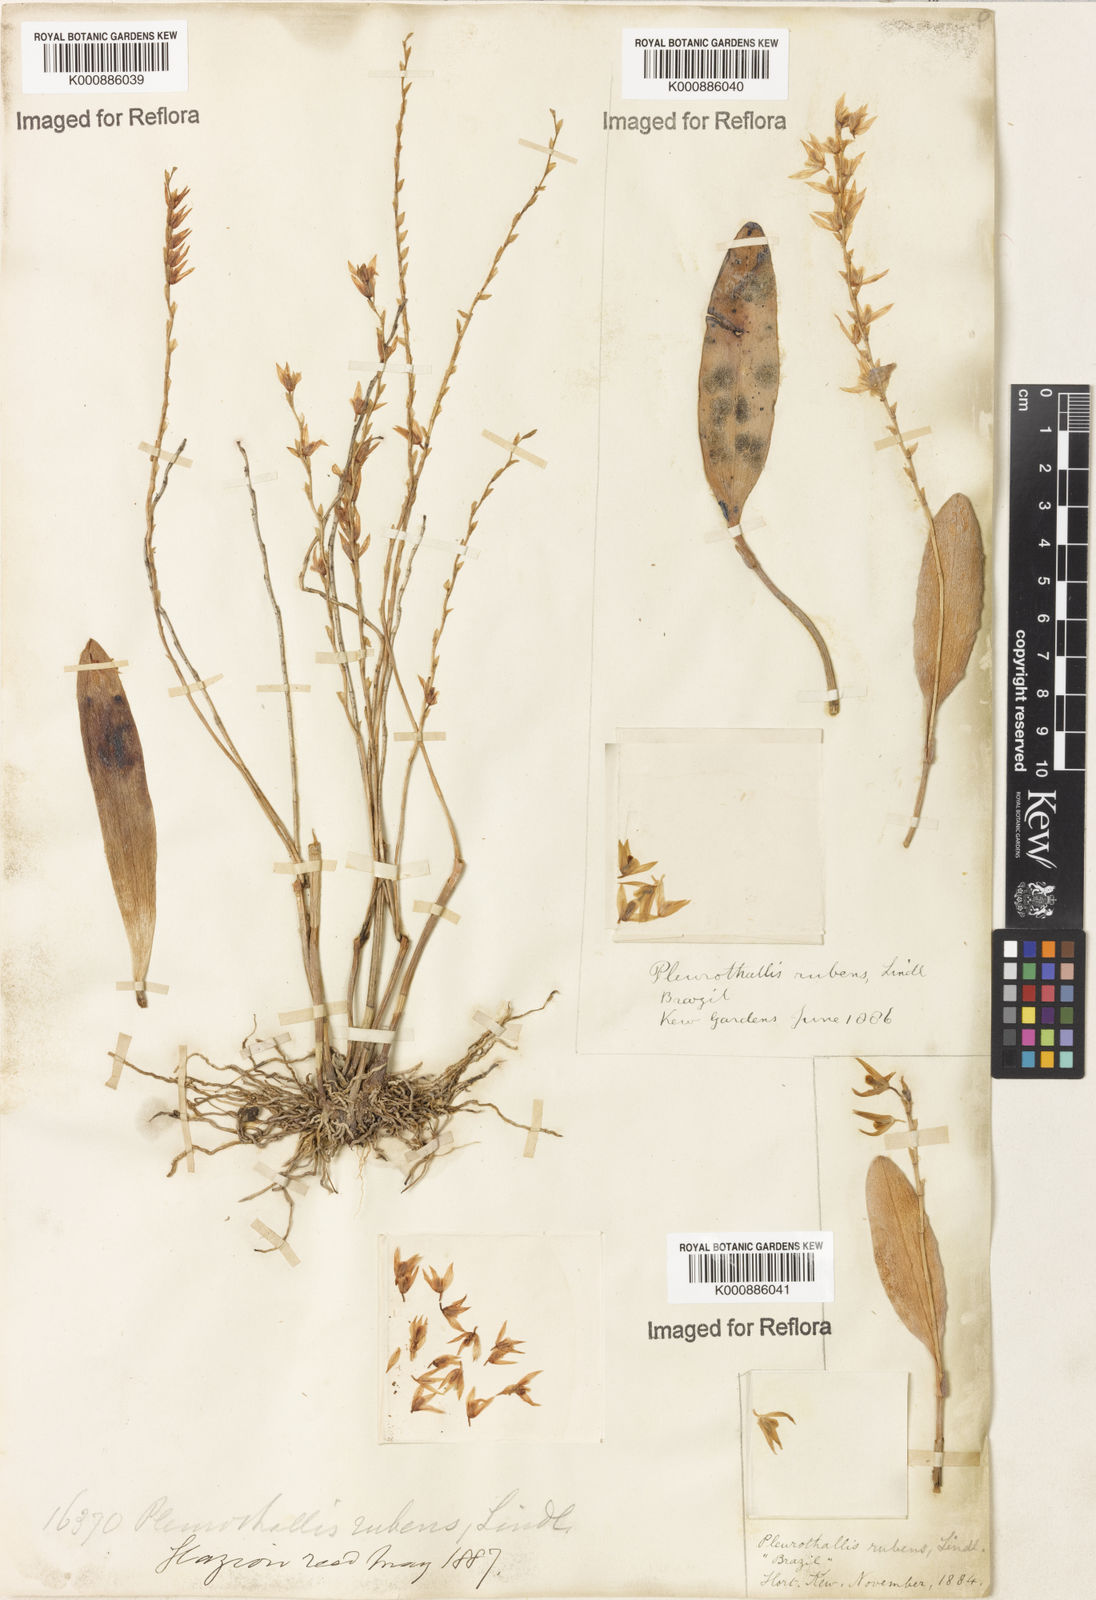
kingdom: Plantae
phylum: Tracheophyta
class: Liliopsida
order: Asparagales
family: Orchidaceae
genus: Stelis
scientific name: Stelis montserratii
